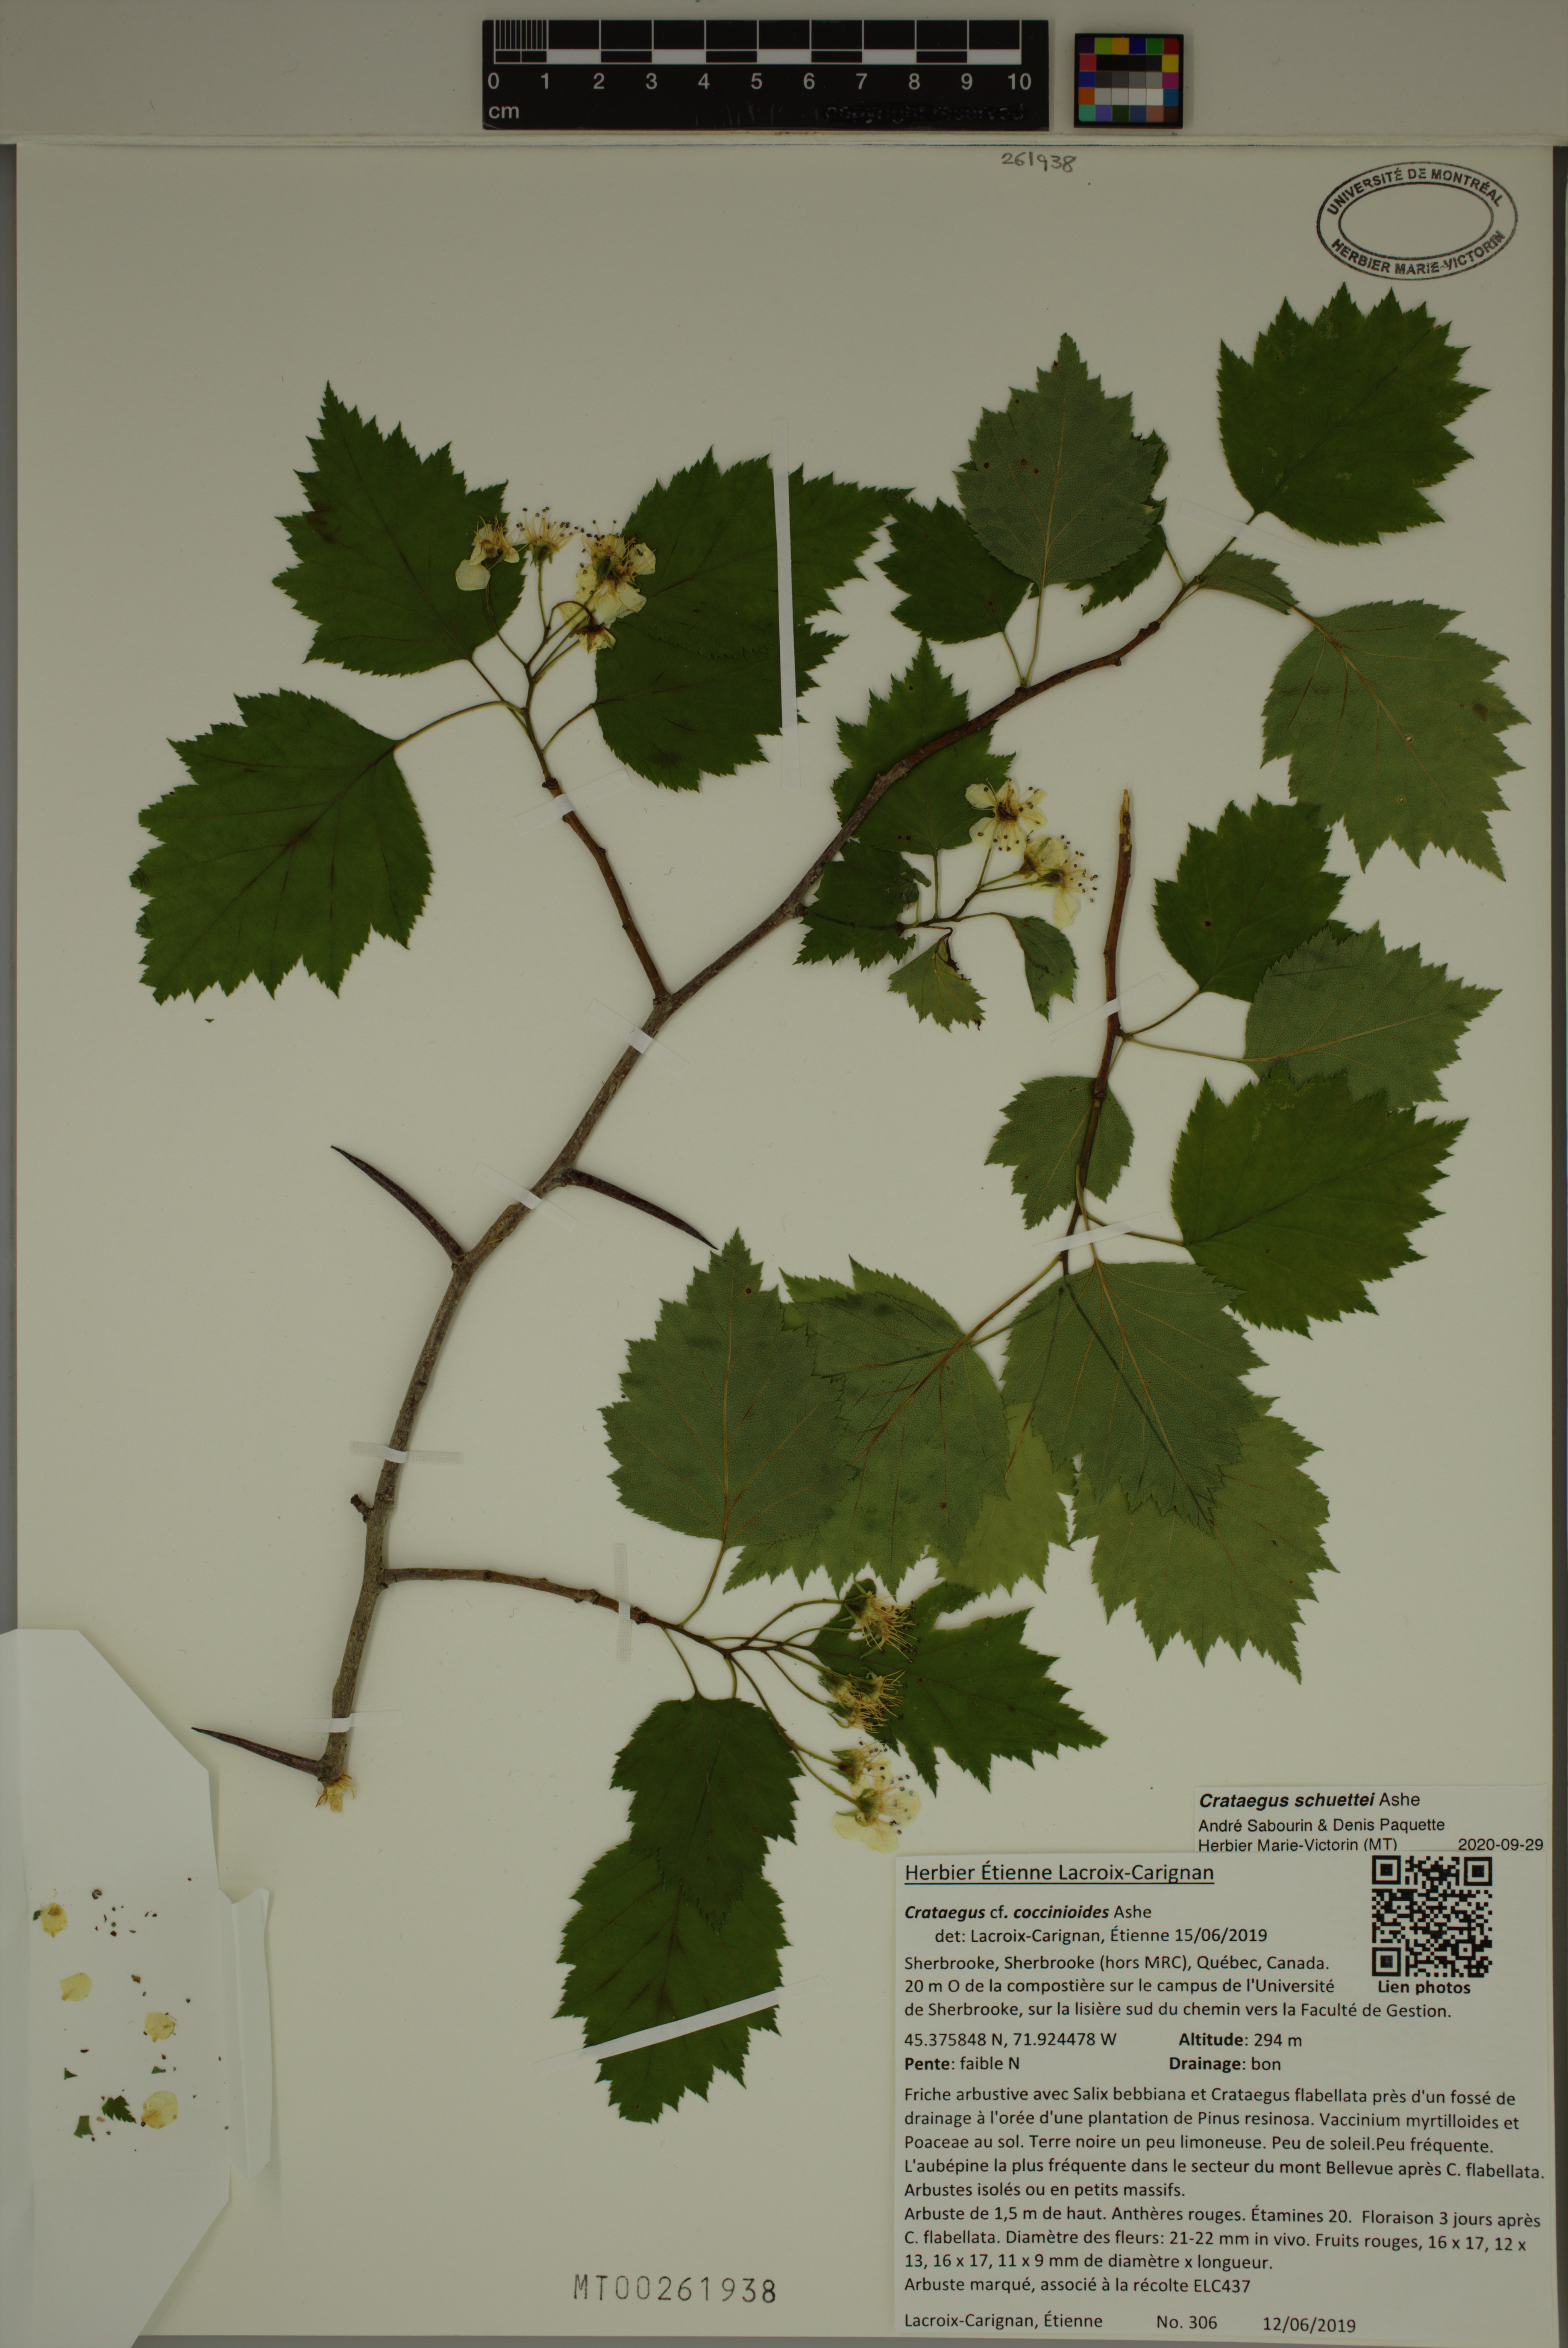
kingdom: Plantae
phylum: Tracheophyta
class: Magnoliopsida
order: Rosales
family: Rosaceae
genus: Crataegus
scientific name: Crataegus schuettei
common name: Schuette's hawthorn
